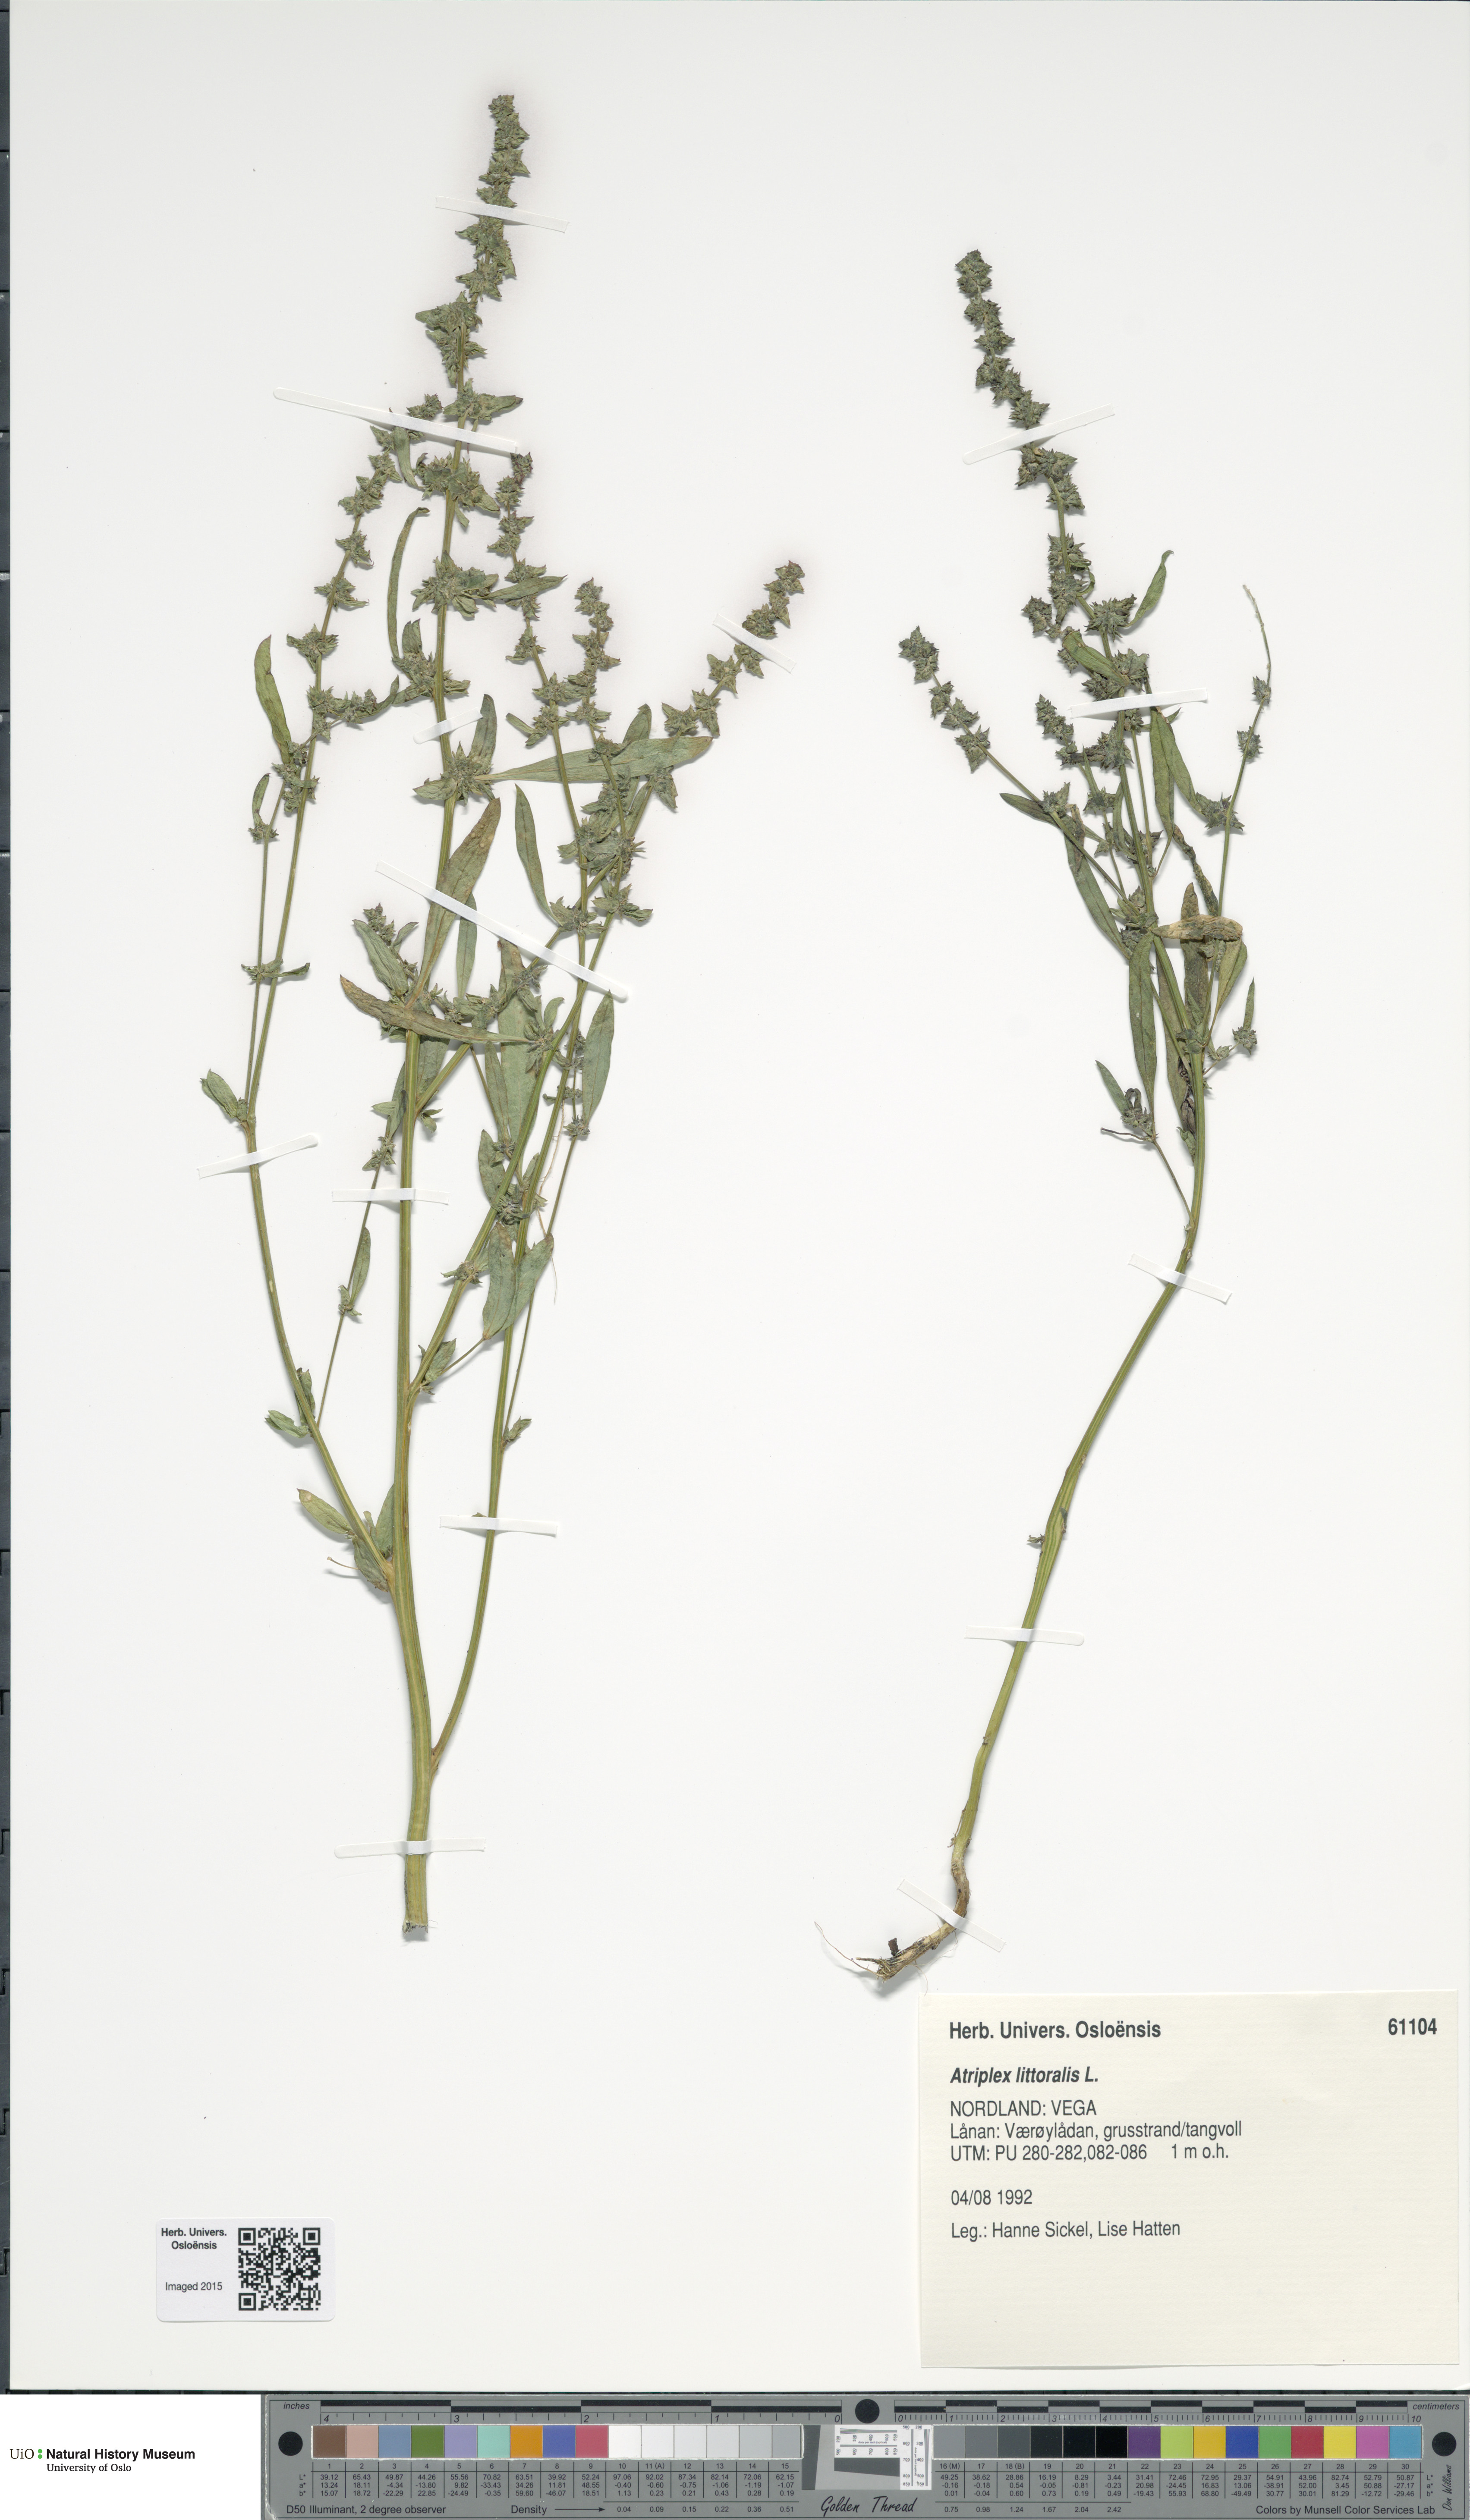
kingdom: Plantae
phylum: Tracheophyta
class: Magnoliopsida
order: Caryophyllales
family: Amaranthaceae
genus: Atriplex
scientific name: Atriplex littoralis
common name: Grass-leaved orache
